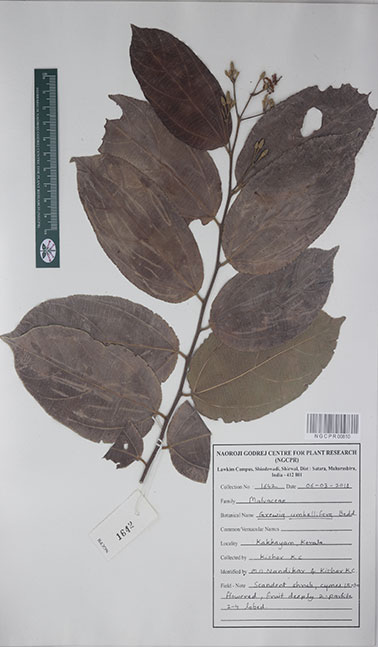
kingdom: Plantae
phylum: Tracheophyta
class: Magnoliopsida
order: Malvales
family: Malvaceae
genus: Grewia
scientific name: Grewia umbellifera
